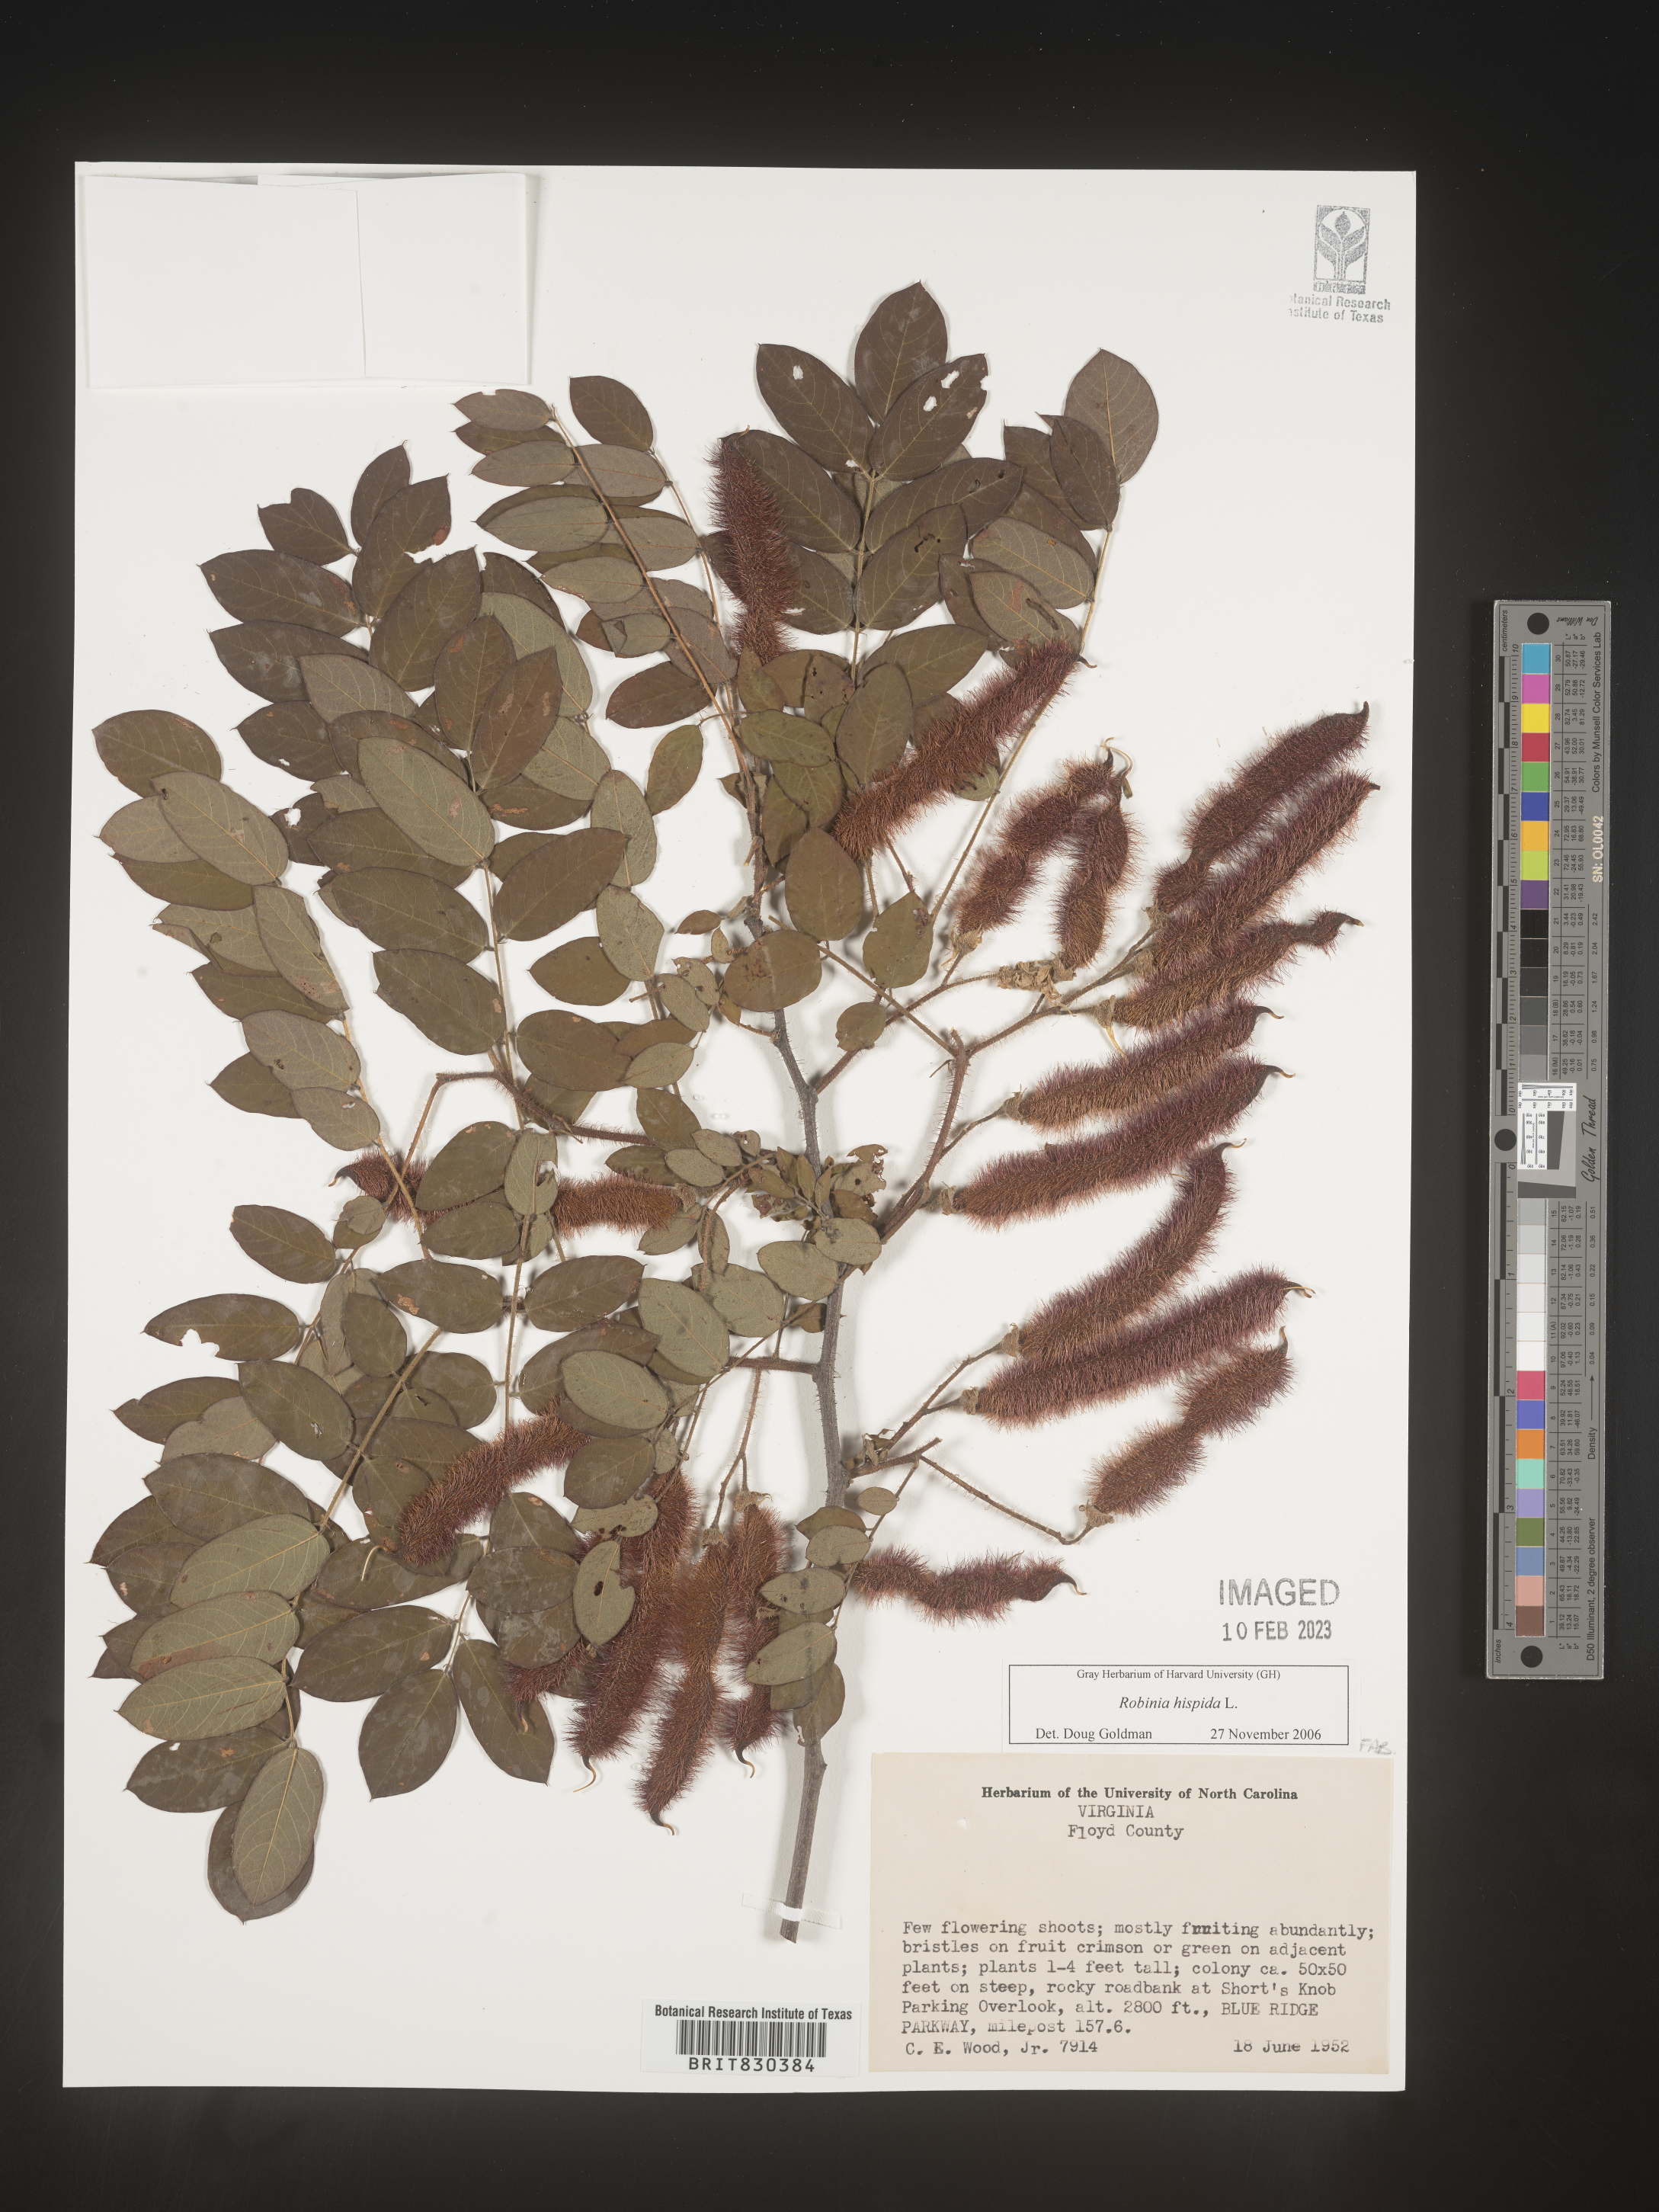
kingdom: Plantae
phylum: Tracheophyta
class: Magnoliopsida
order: Fabales
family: Fabaceae
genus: Robinia
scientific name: Robinia hispida
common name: Bristly locust
